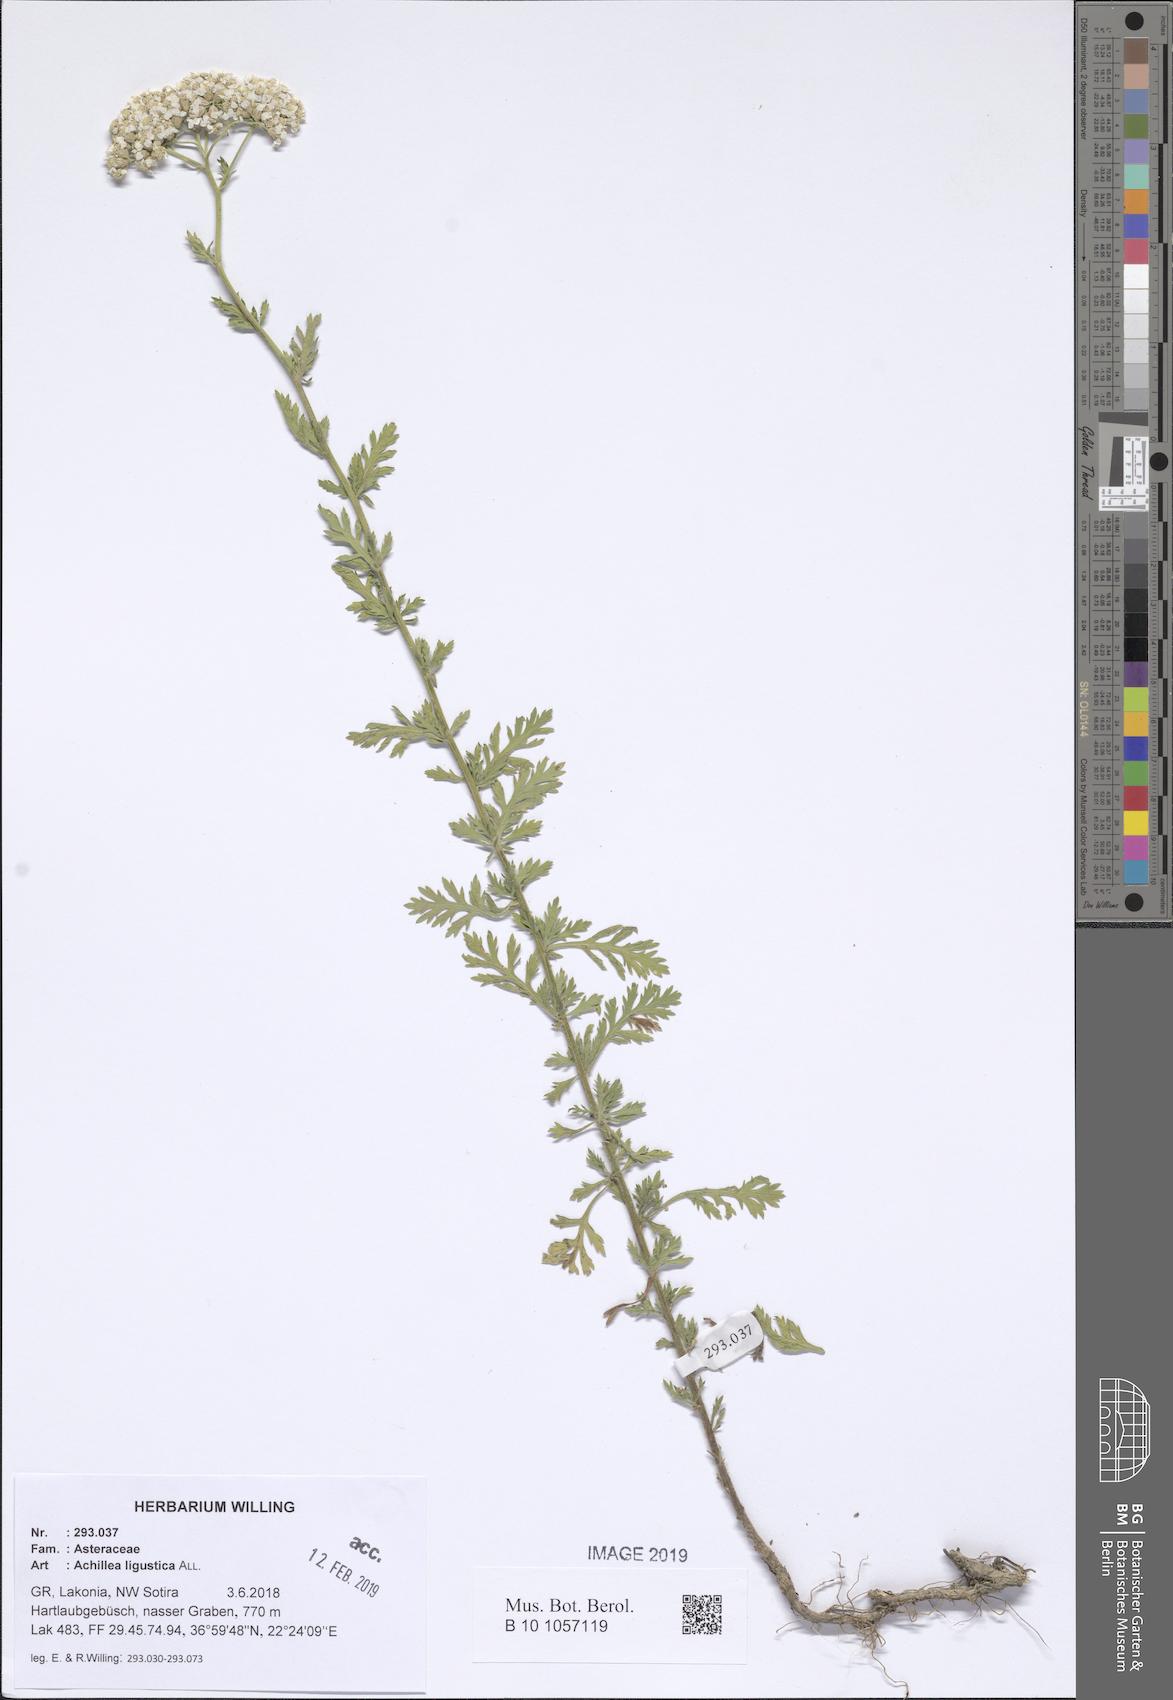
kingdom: Plantae
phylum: Tracheophyta
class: Magnoliopsida
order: Asterales
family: Asteraceae
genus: Achillea
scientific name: Achillea ligustica
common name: Southern yarrow
